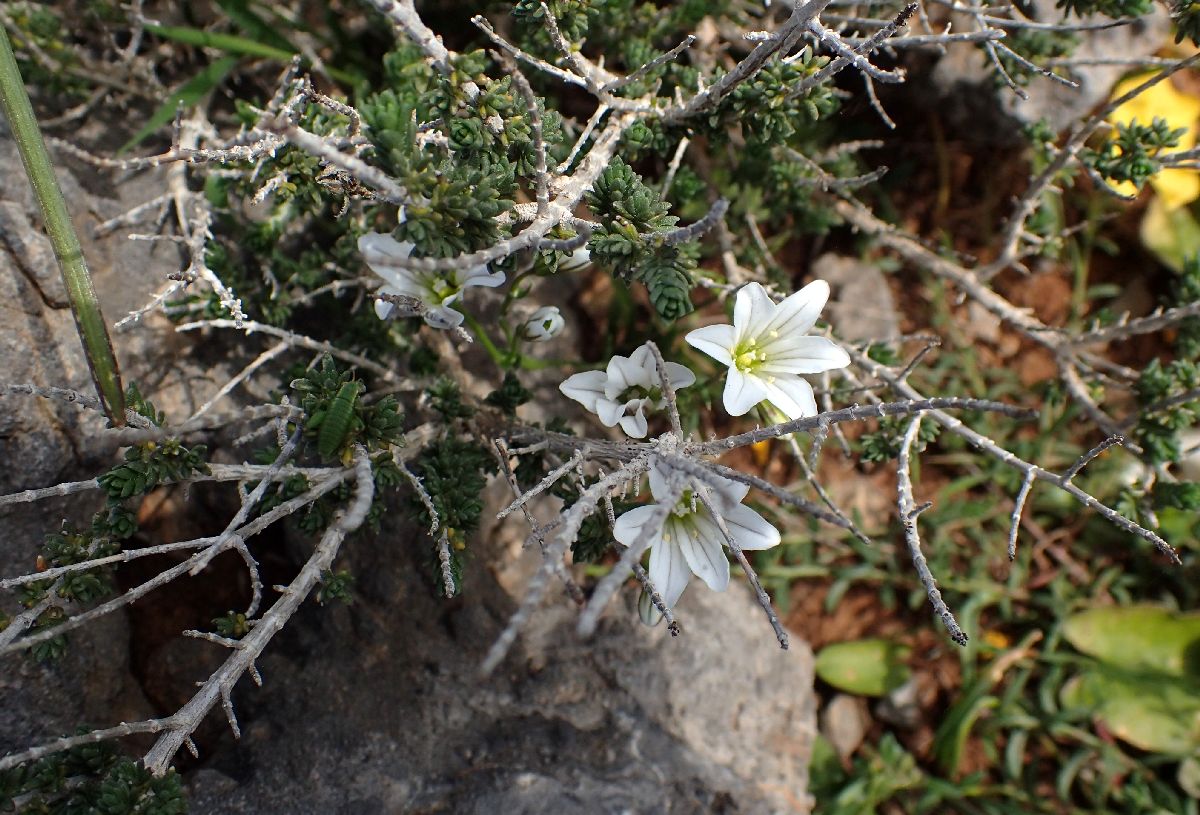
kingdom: Plantae
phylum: Tracheophyta
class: Liliopsida
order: Liliales
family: Liliaceae
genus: Gagea
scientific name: Gagea graeca
